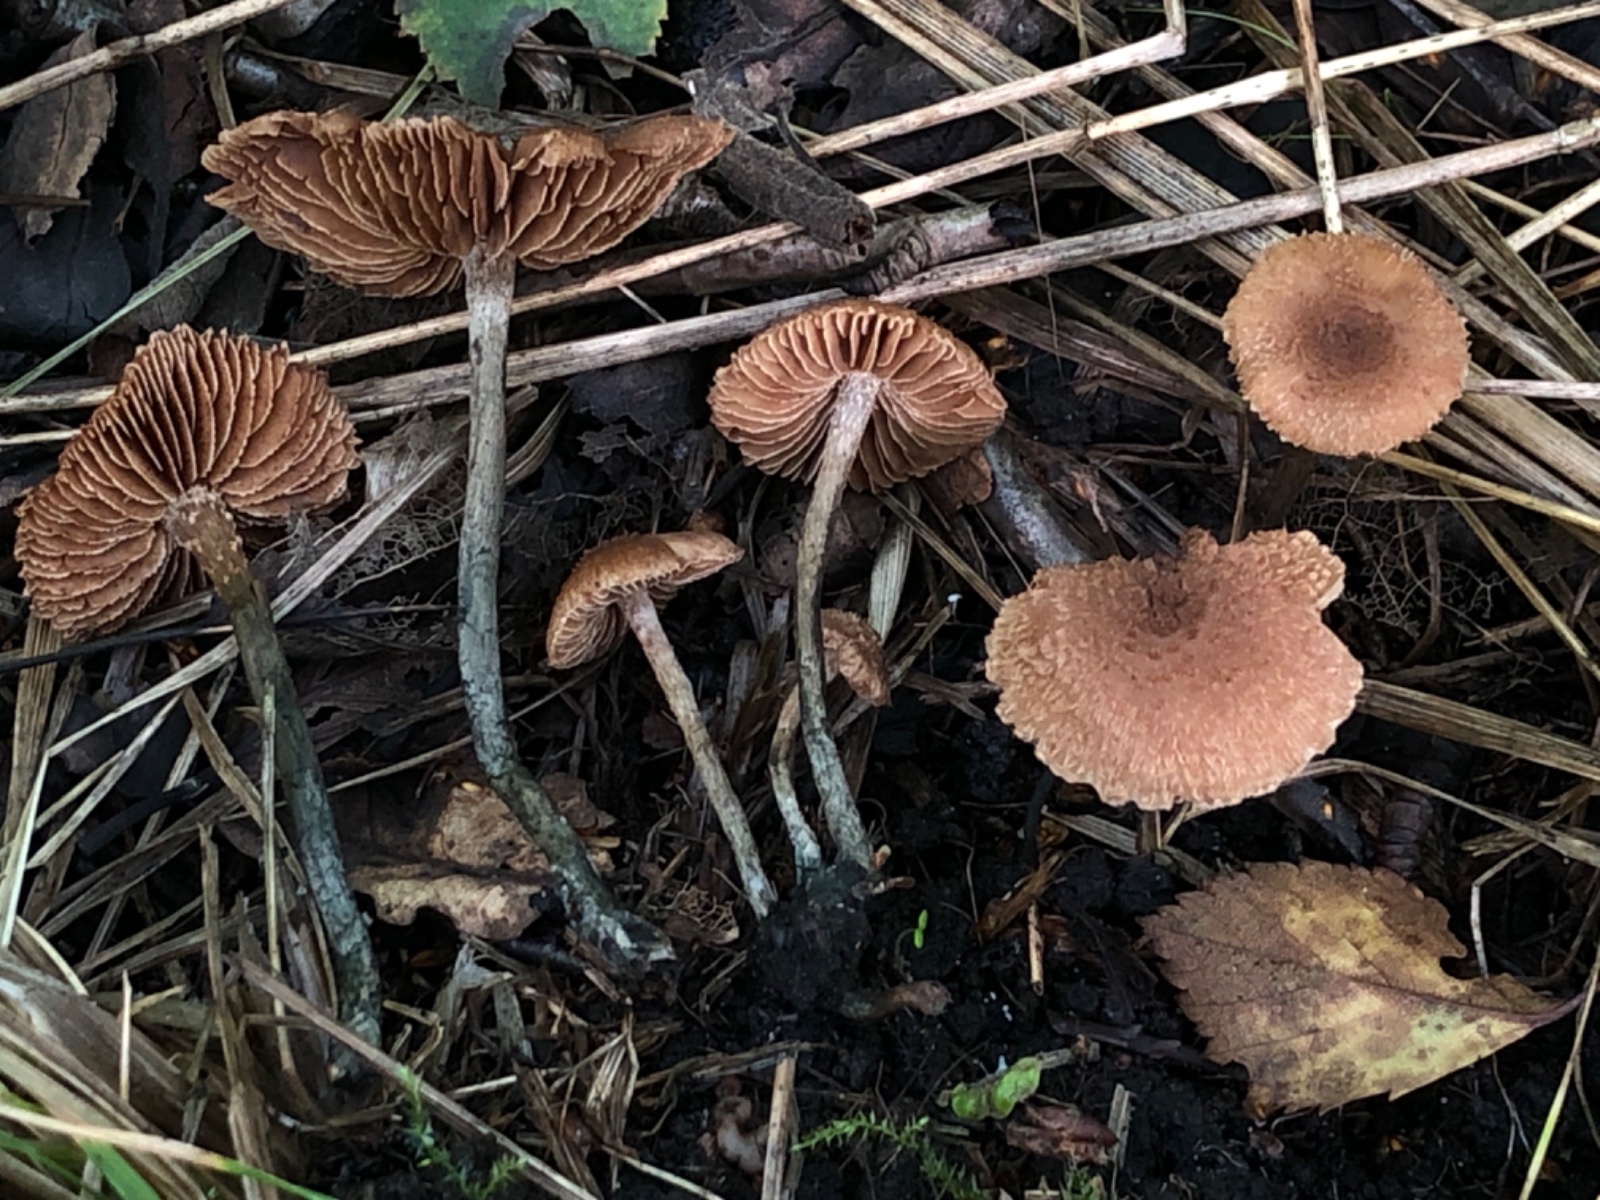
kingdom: Fungi
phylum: Basidiomycota
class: Agaricomycetes
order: Agaricales
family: Inocybaceae
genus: Inosperma
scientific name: Inosperma calamistratum
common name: grønfodet trævlhat
